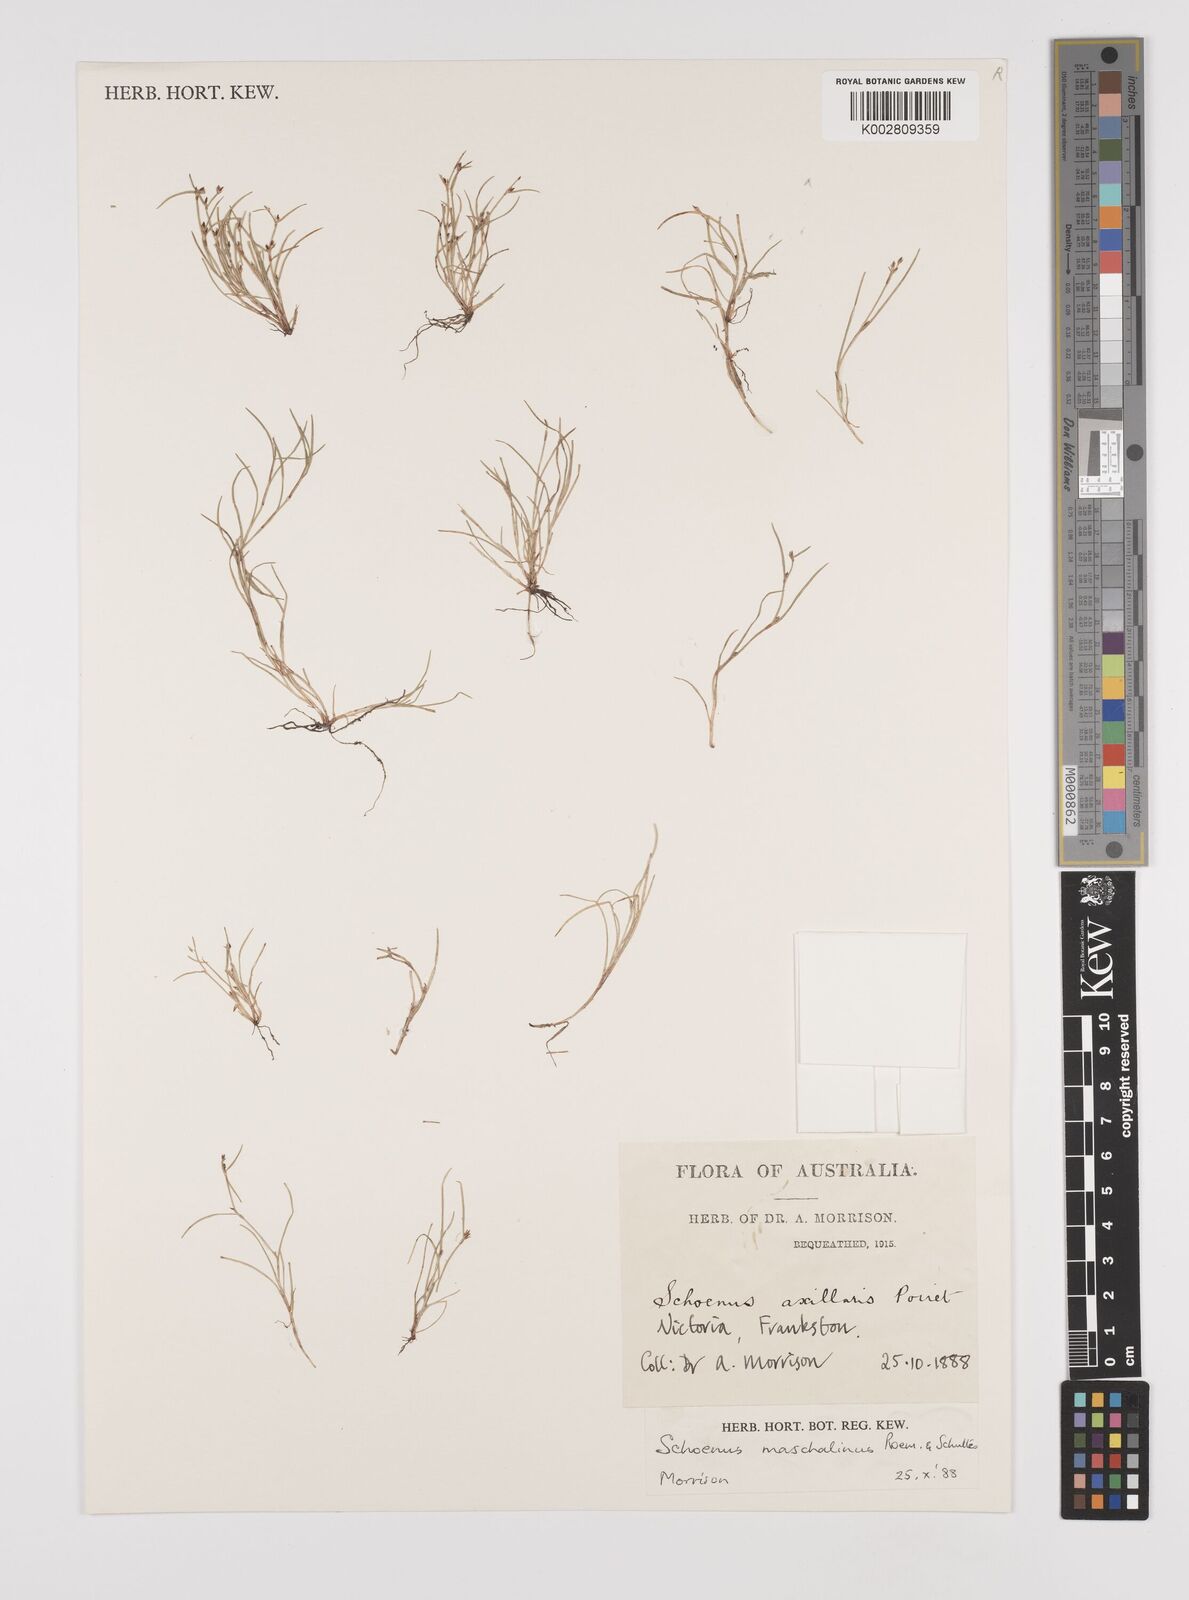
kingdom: Plantae
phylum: Tracheophyta
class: Liliopsida
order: Poales
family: Cyperaceae
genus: Schoenus
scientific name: Schoenus maschalinus
